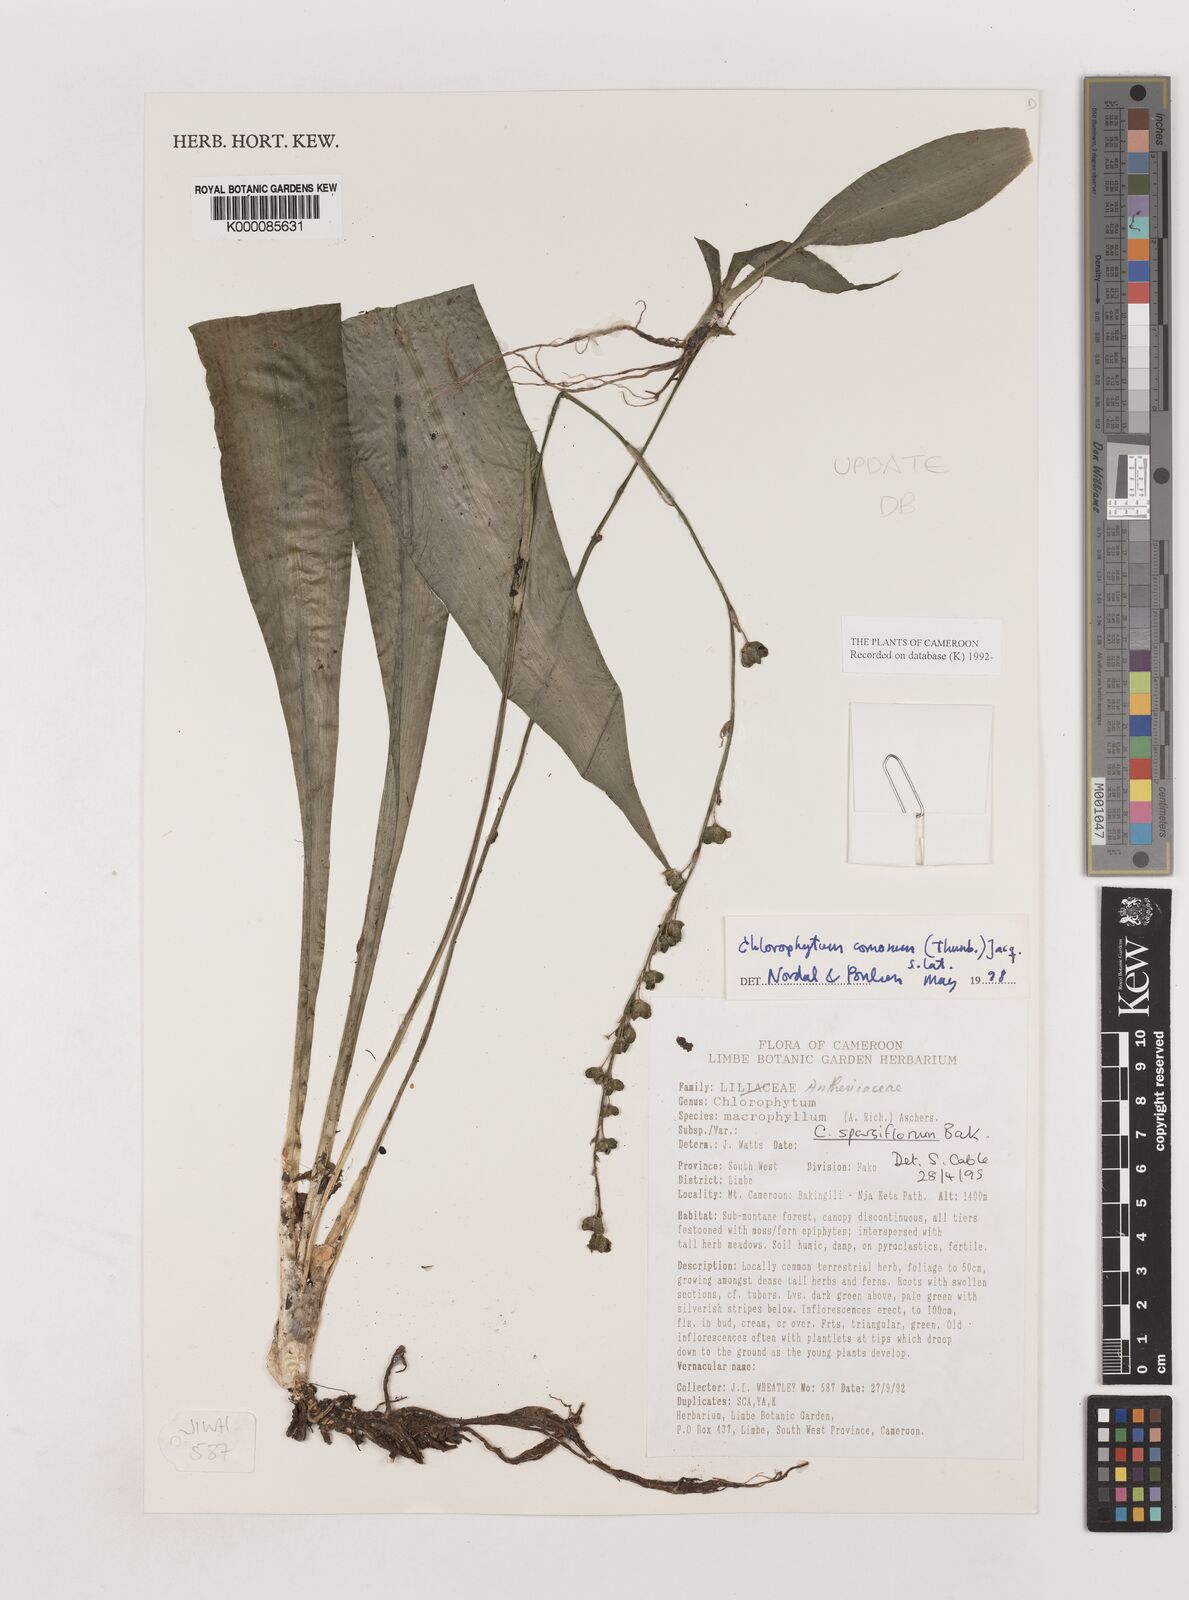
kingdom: Plantae
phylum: Tracheophyta
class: Liliopsida
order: Asparagales
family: Asparagaceae
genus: Chlorophytum
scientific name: Chlorophytum sparsiflorum
